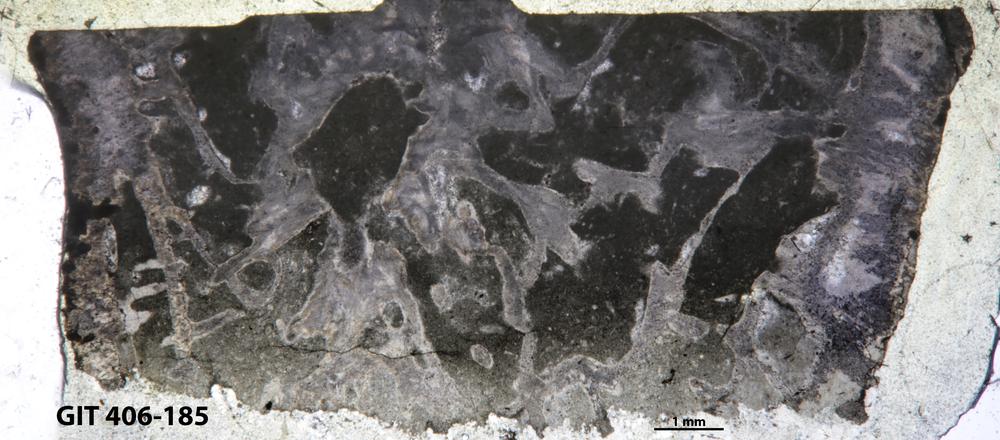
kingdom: Animalia
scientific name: Animalia
